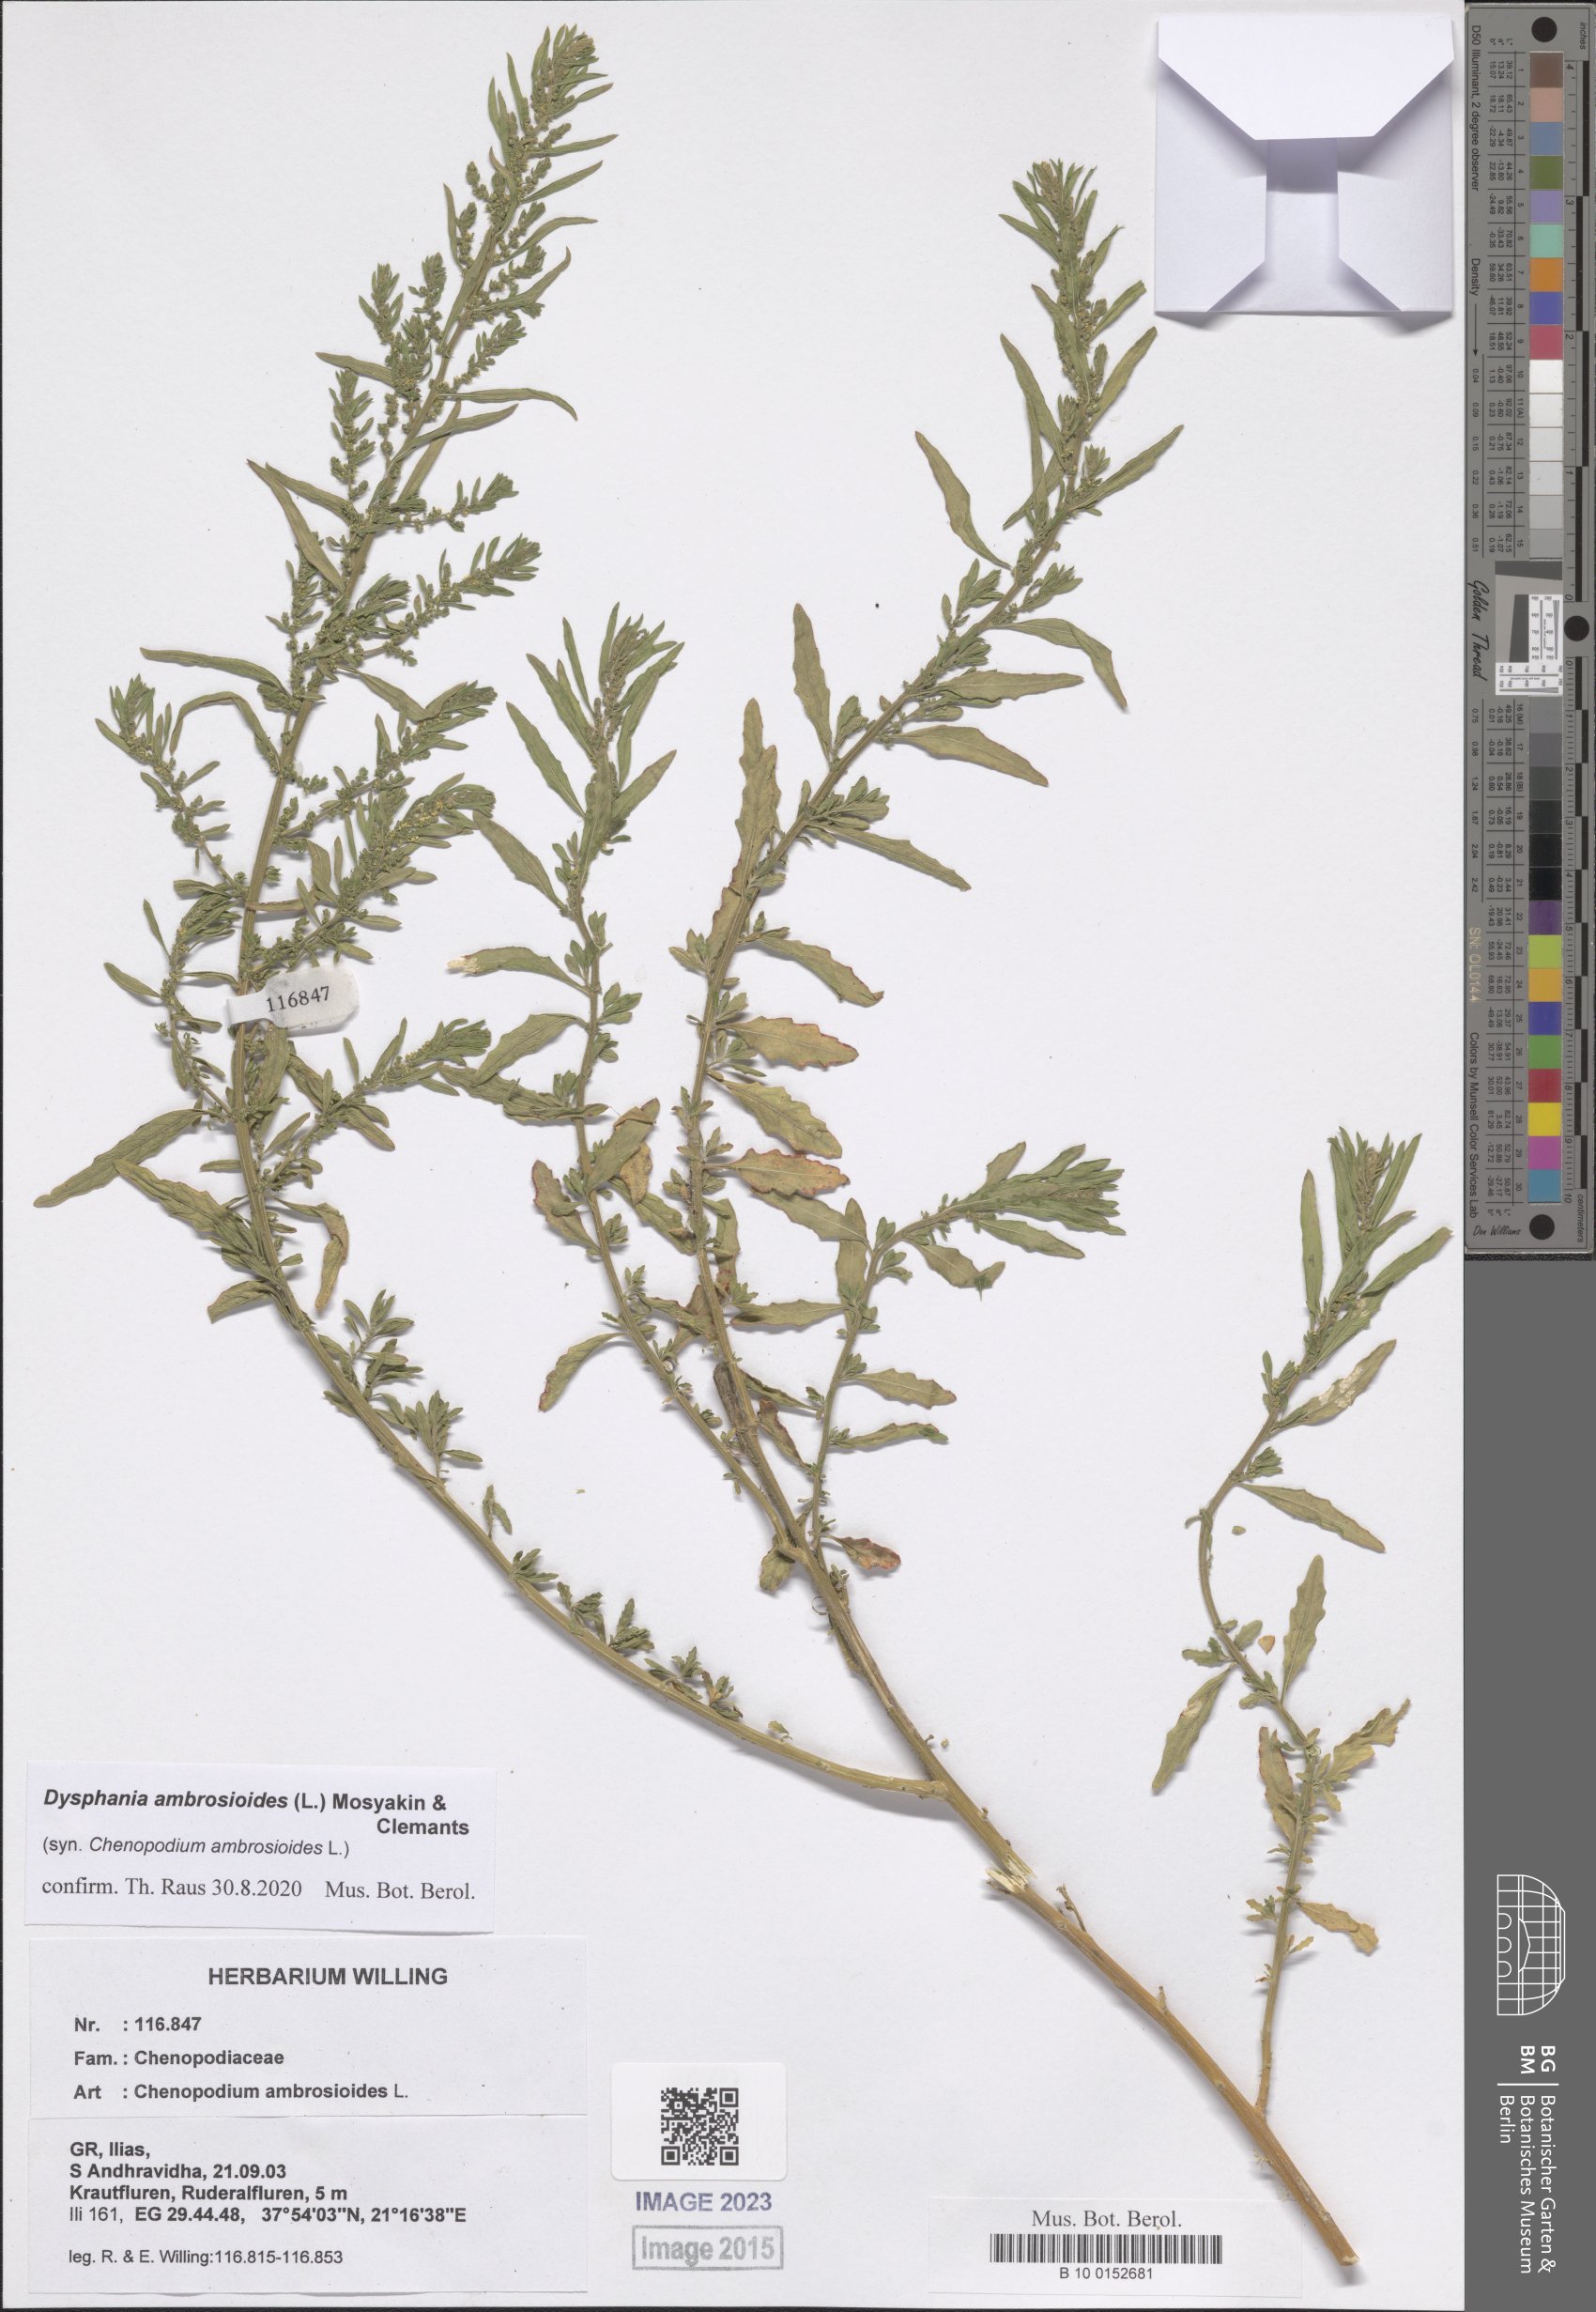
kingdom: Plantae
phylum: Tracheophyta
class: Magnoliopsida
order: Caryophyllales
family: Amaranthaceae
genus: Dysphania
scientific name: Dysphania ambrosioides
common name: Wormseed
